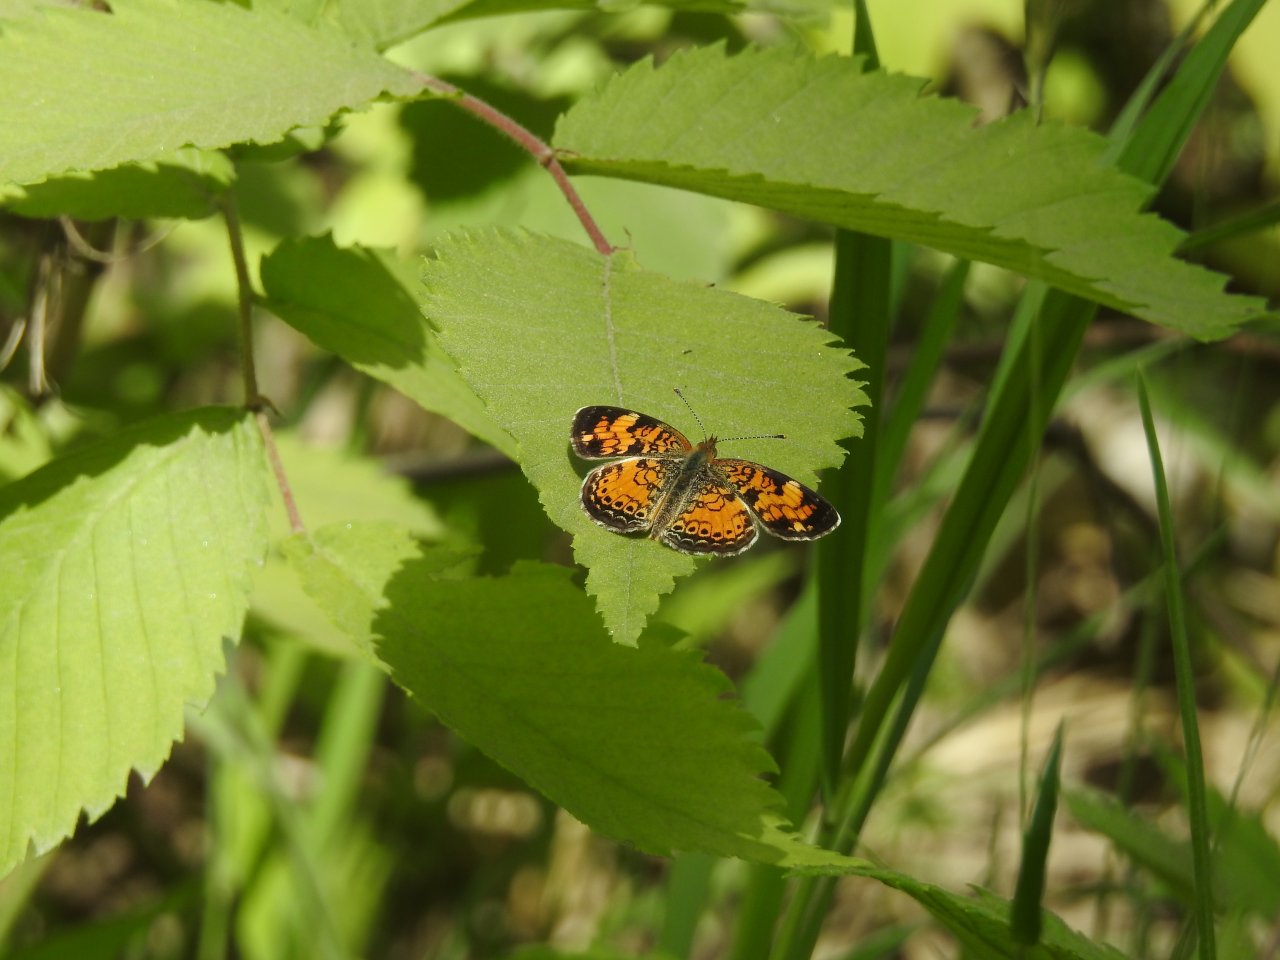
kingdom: Animalia
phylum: Arthropoda
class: Insecta
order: Lepidoptera
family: Nymphalidae
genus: Phyciodes
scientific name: Phyciodes tharos
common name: Northern Crescent
